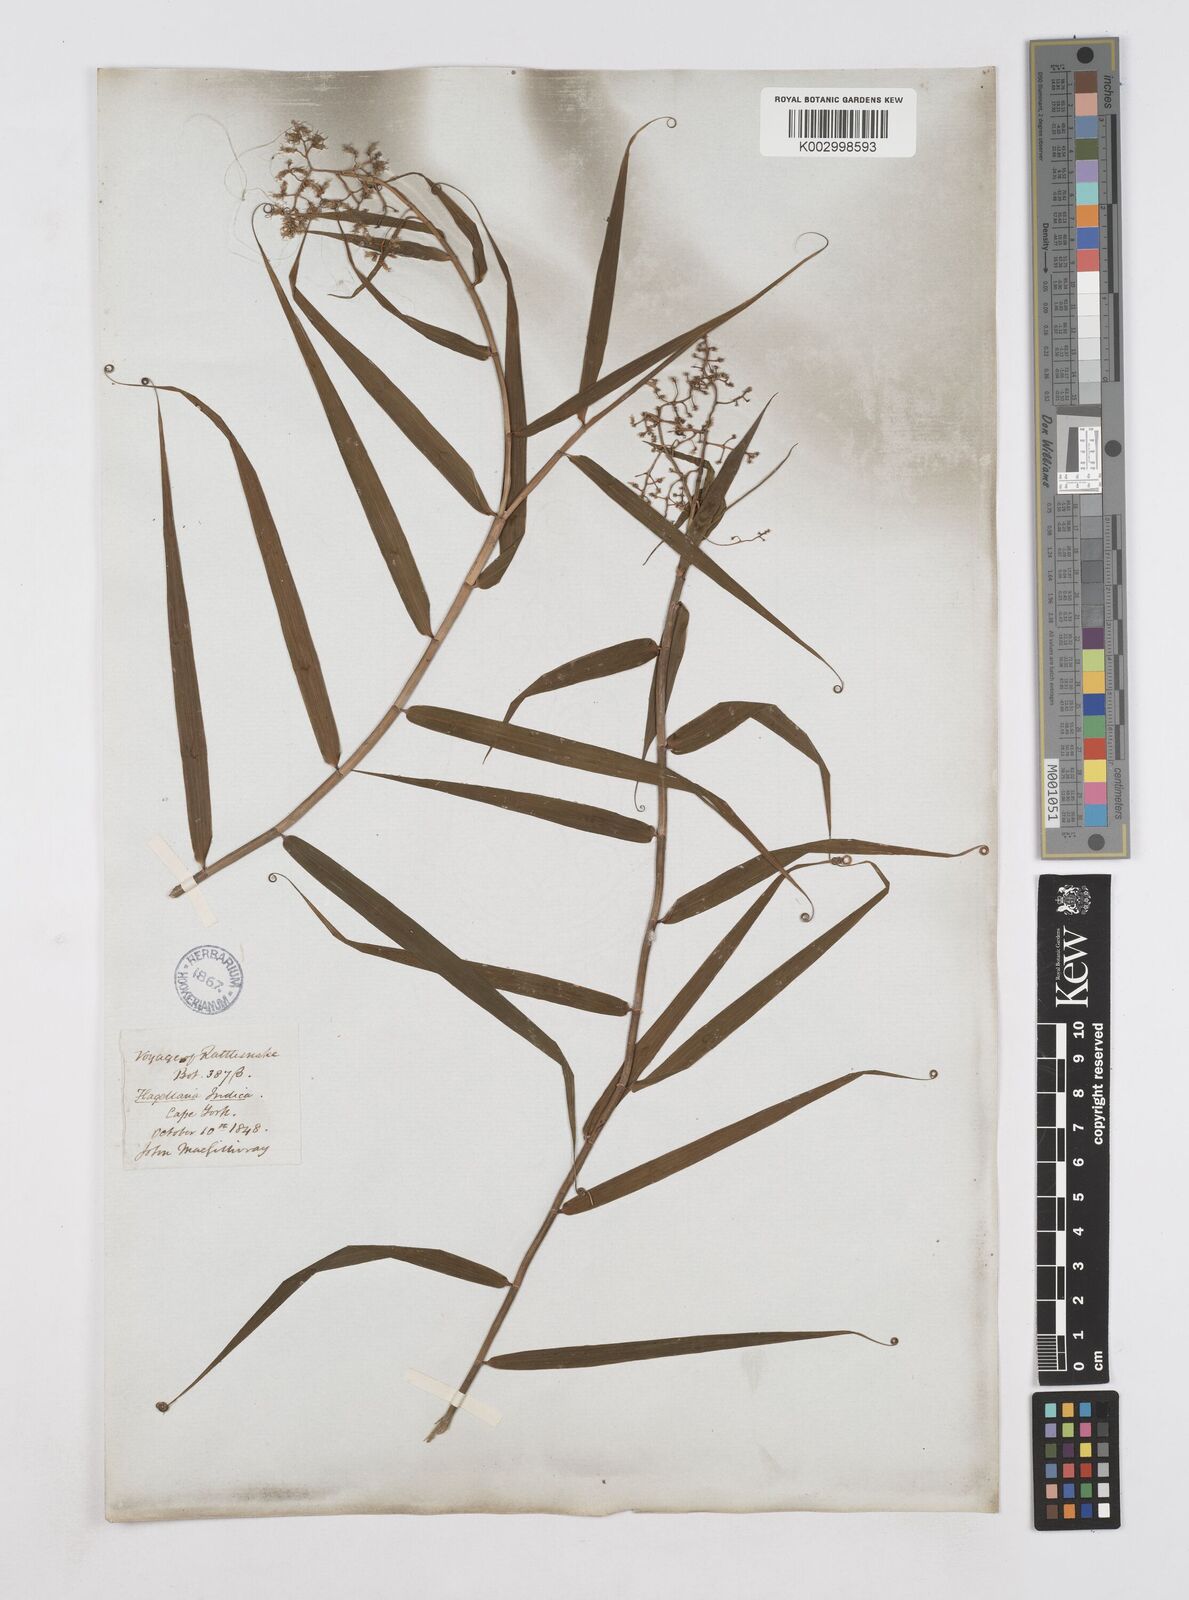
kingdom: Plantae
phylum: Tracheophyta
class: Liliopsida
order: Poales
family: Flagellariaceae
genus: Flagellaria
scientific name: Flagellaria indica
